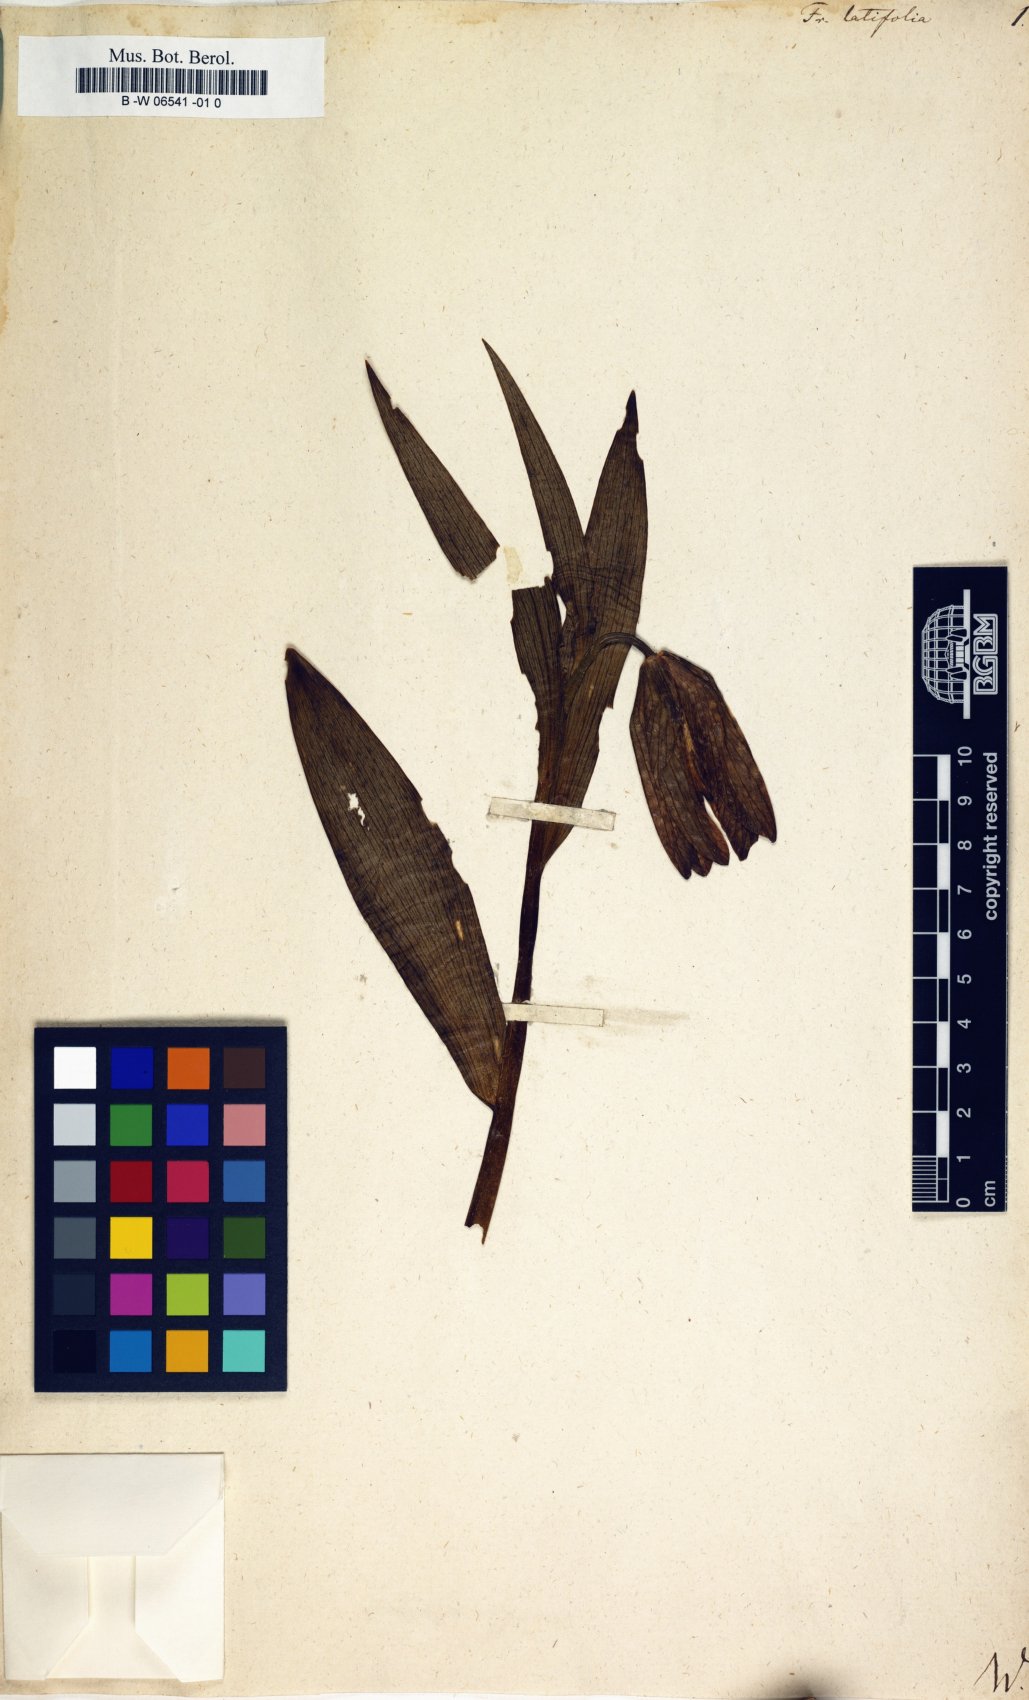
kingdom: Plantae
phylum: Tracheophyta
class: Liliopsida
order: Liliales
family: Liliaceae
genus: Fritillaria
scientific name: Fritillaria latifolia
